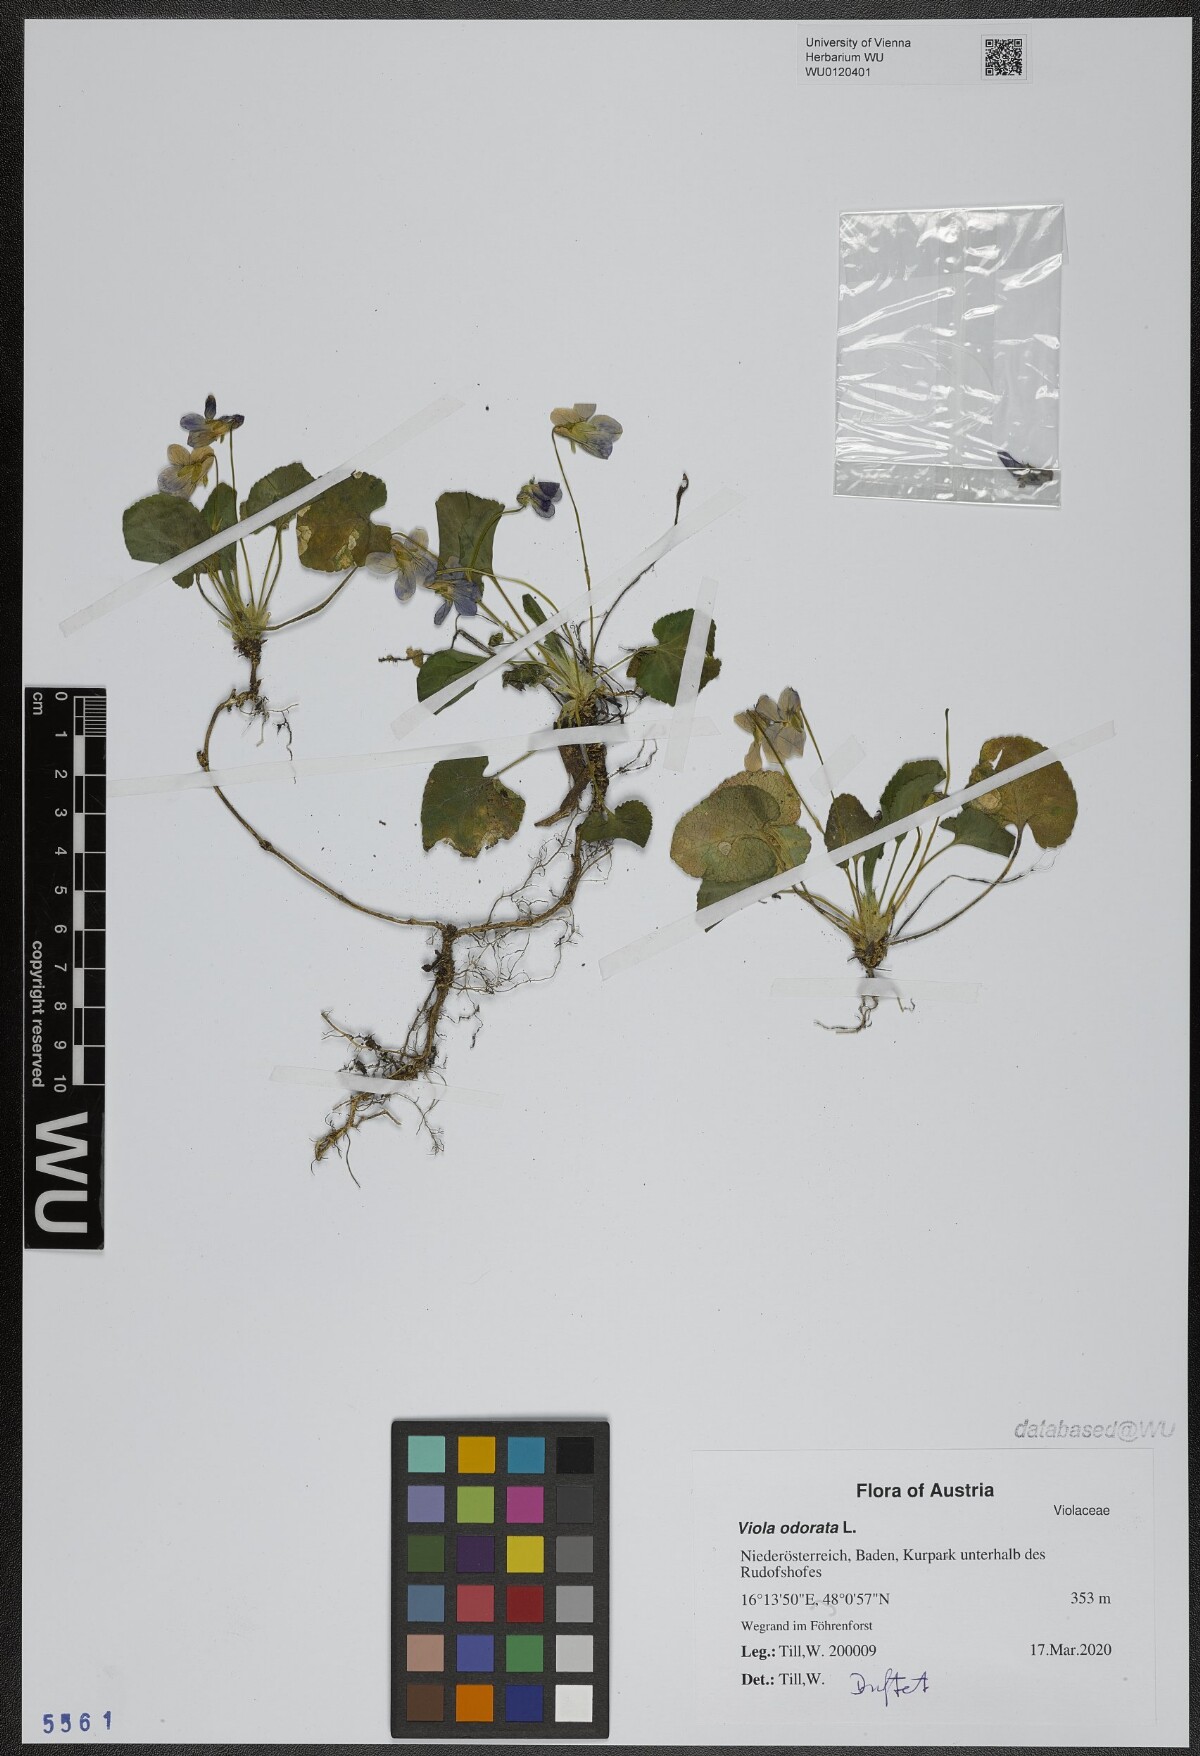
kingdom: Plantae
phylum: Tracheophyta
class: Magnoliopsida
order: Malpighiales
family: Violaceae
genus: Viola
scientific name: Viola odorata
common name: Sweet violet
